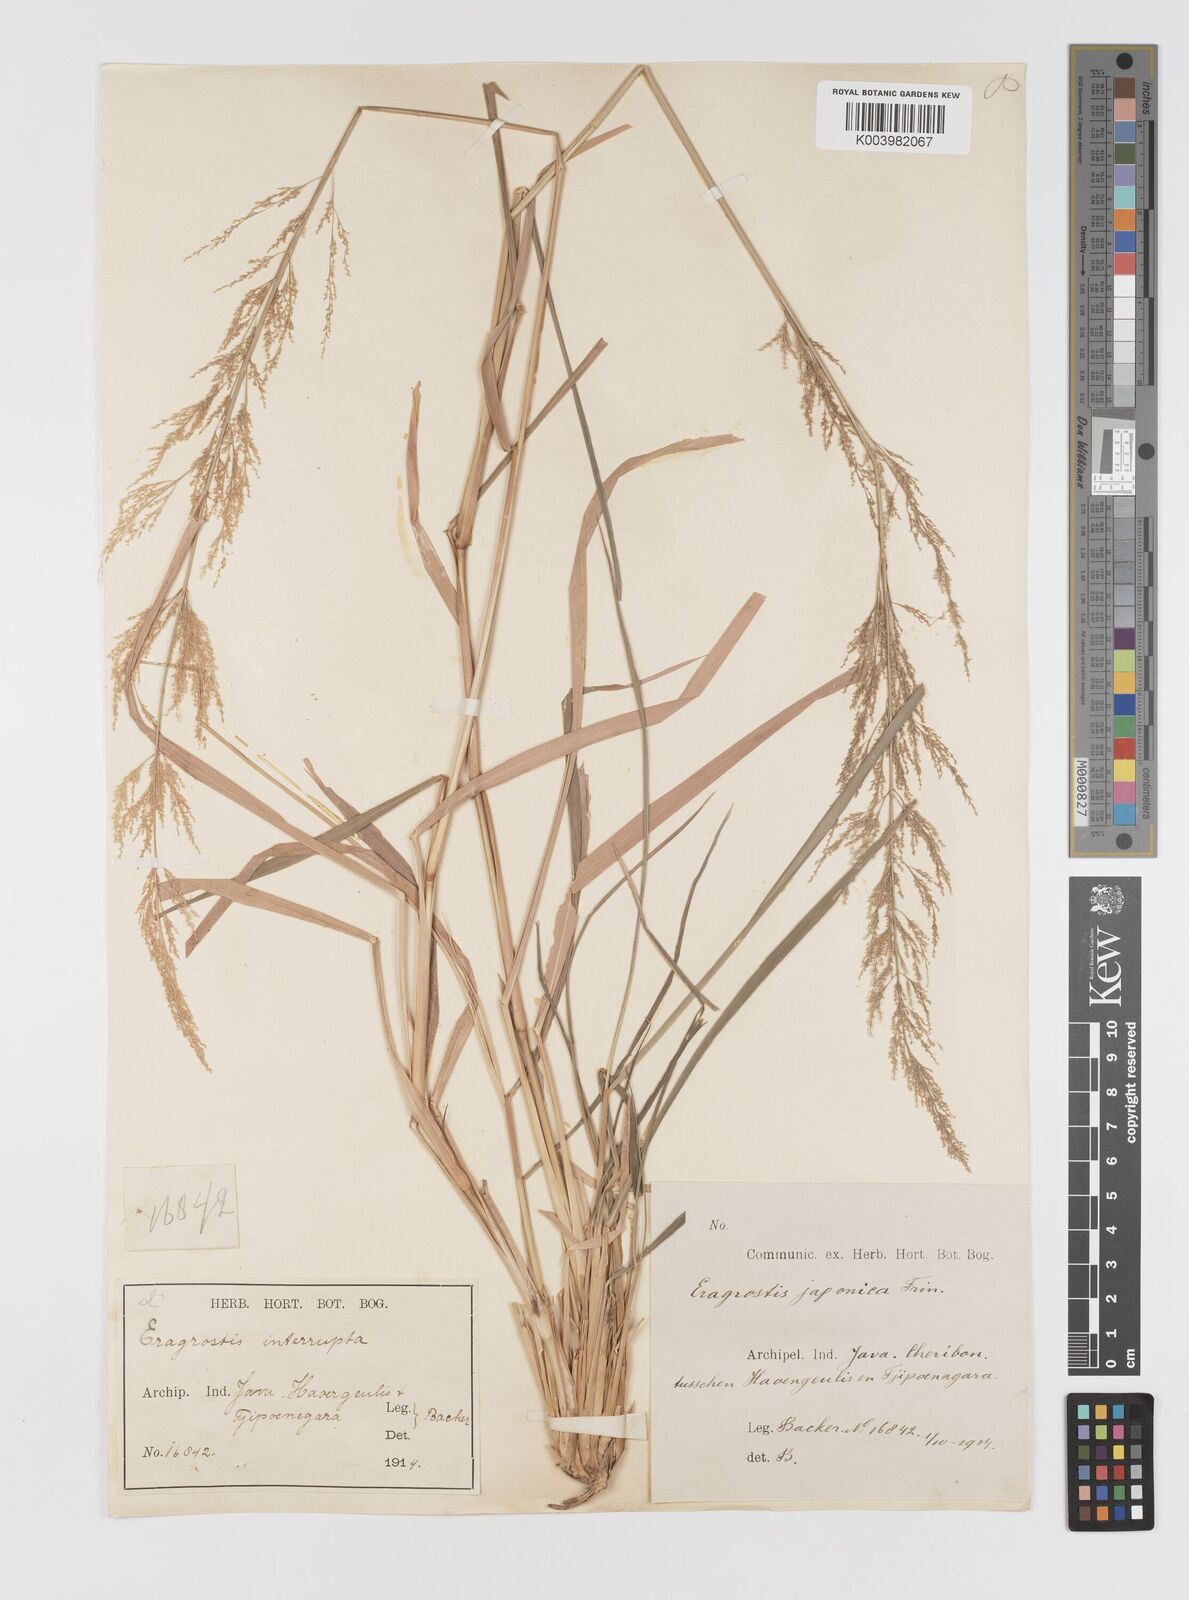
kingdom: Plantae
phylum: Tracheophyta
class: Liliopsida
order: Poales
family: Poaceae
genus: Eragrostis
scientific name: Eragrostis japonica
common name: Pond lovegrass
